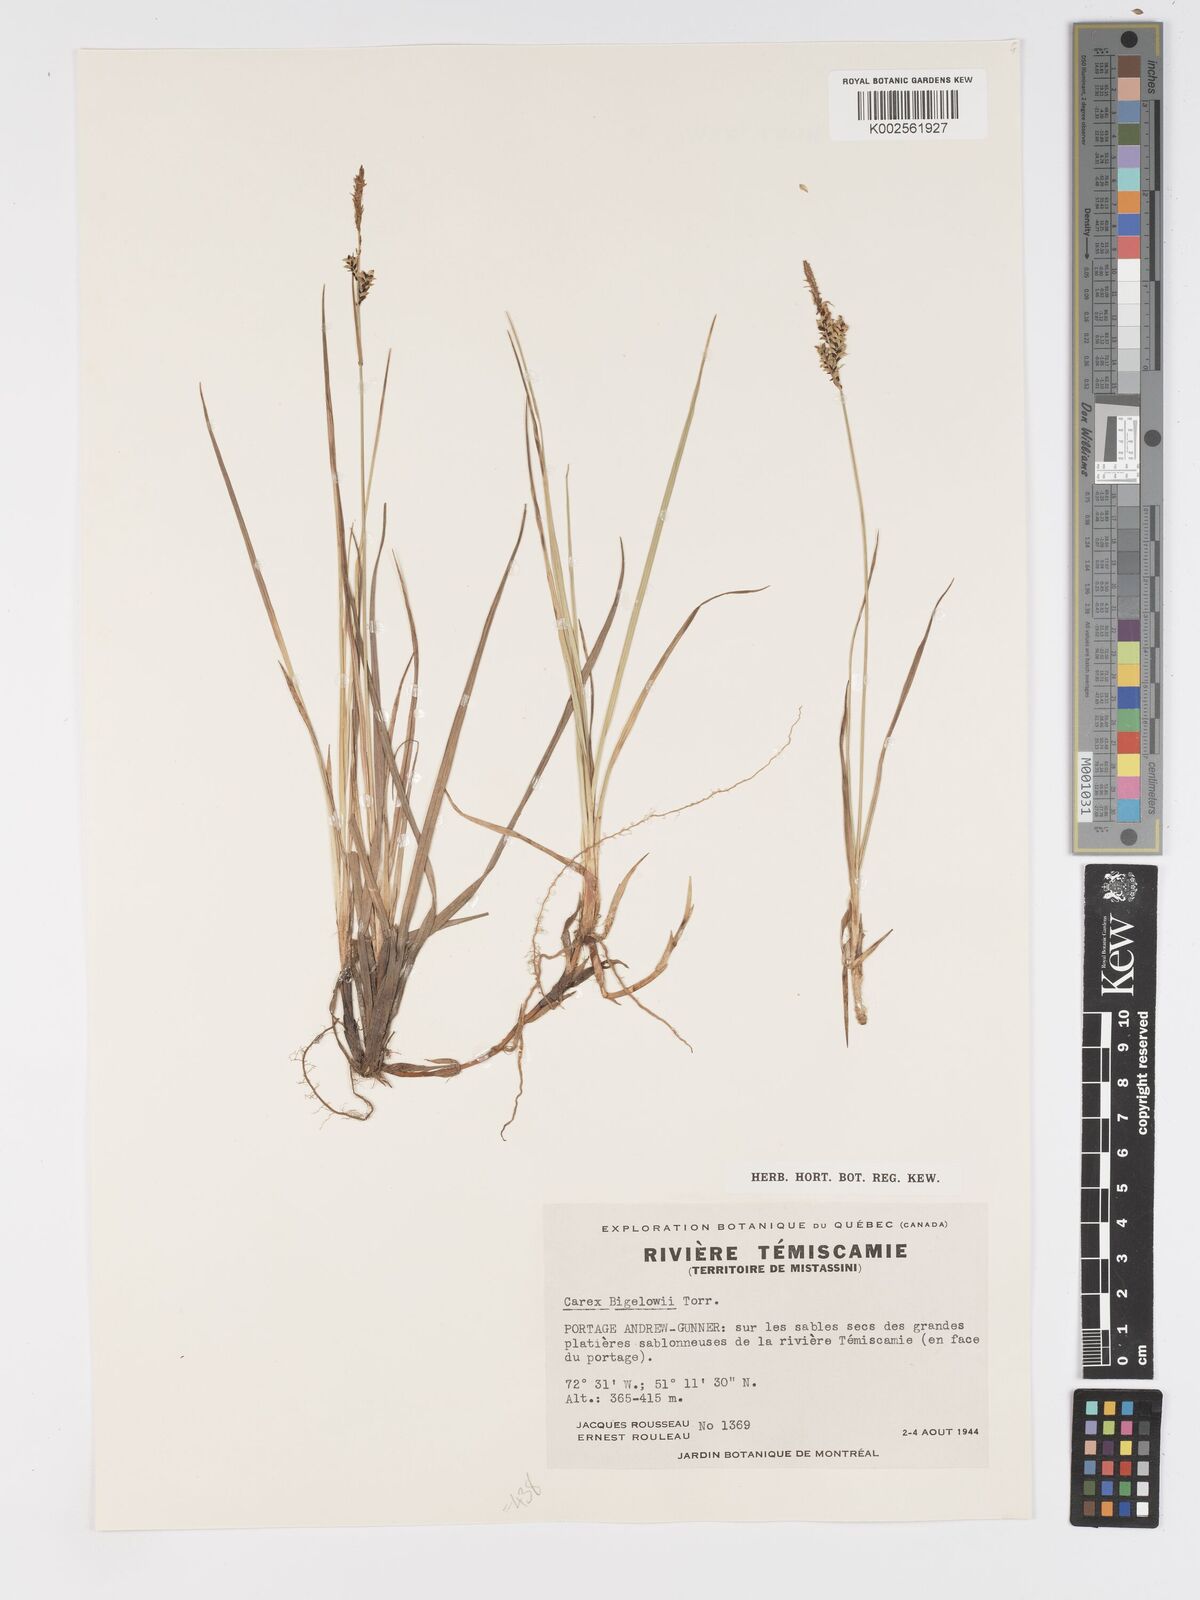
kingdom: Plantae
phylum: Tracheophyta
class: Liliopsida
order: Poales
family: Cyperaceae
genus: Carex
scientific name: Carex bigelowii
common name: Stiff sedge
